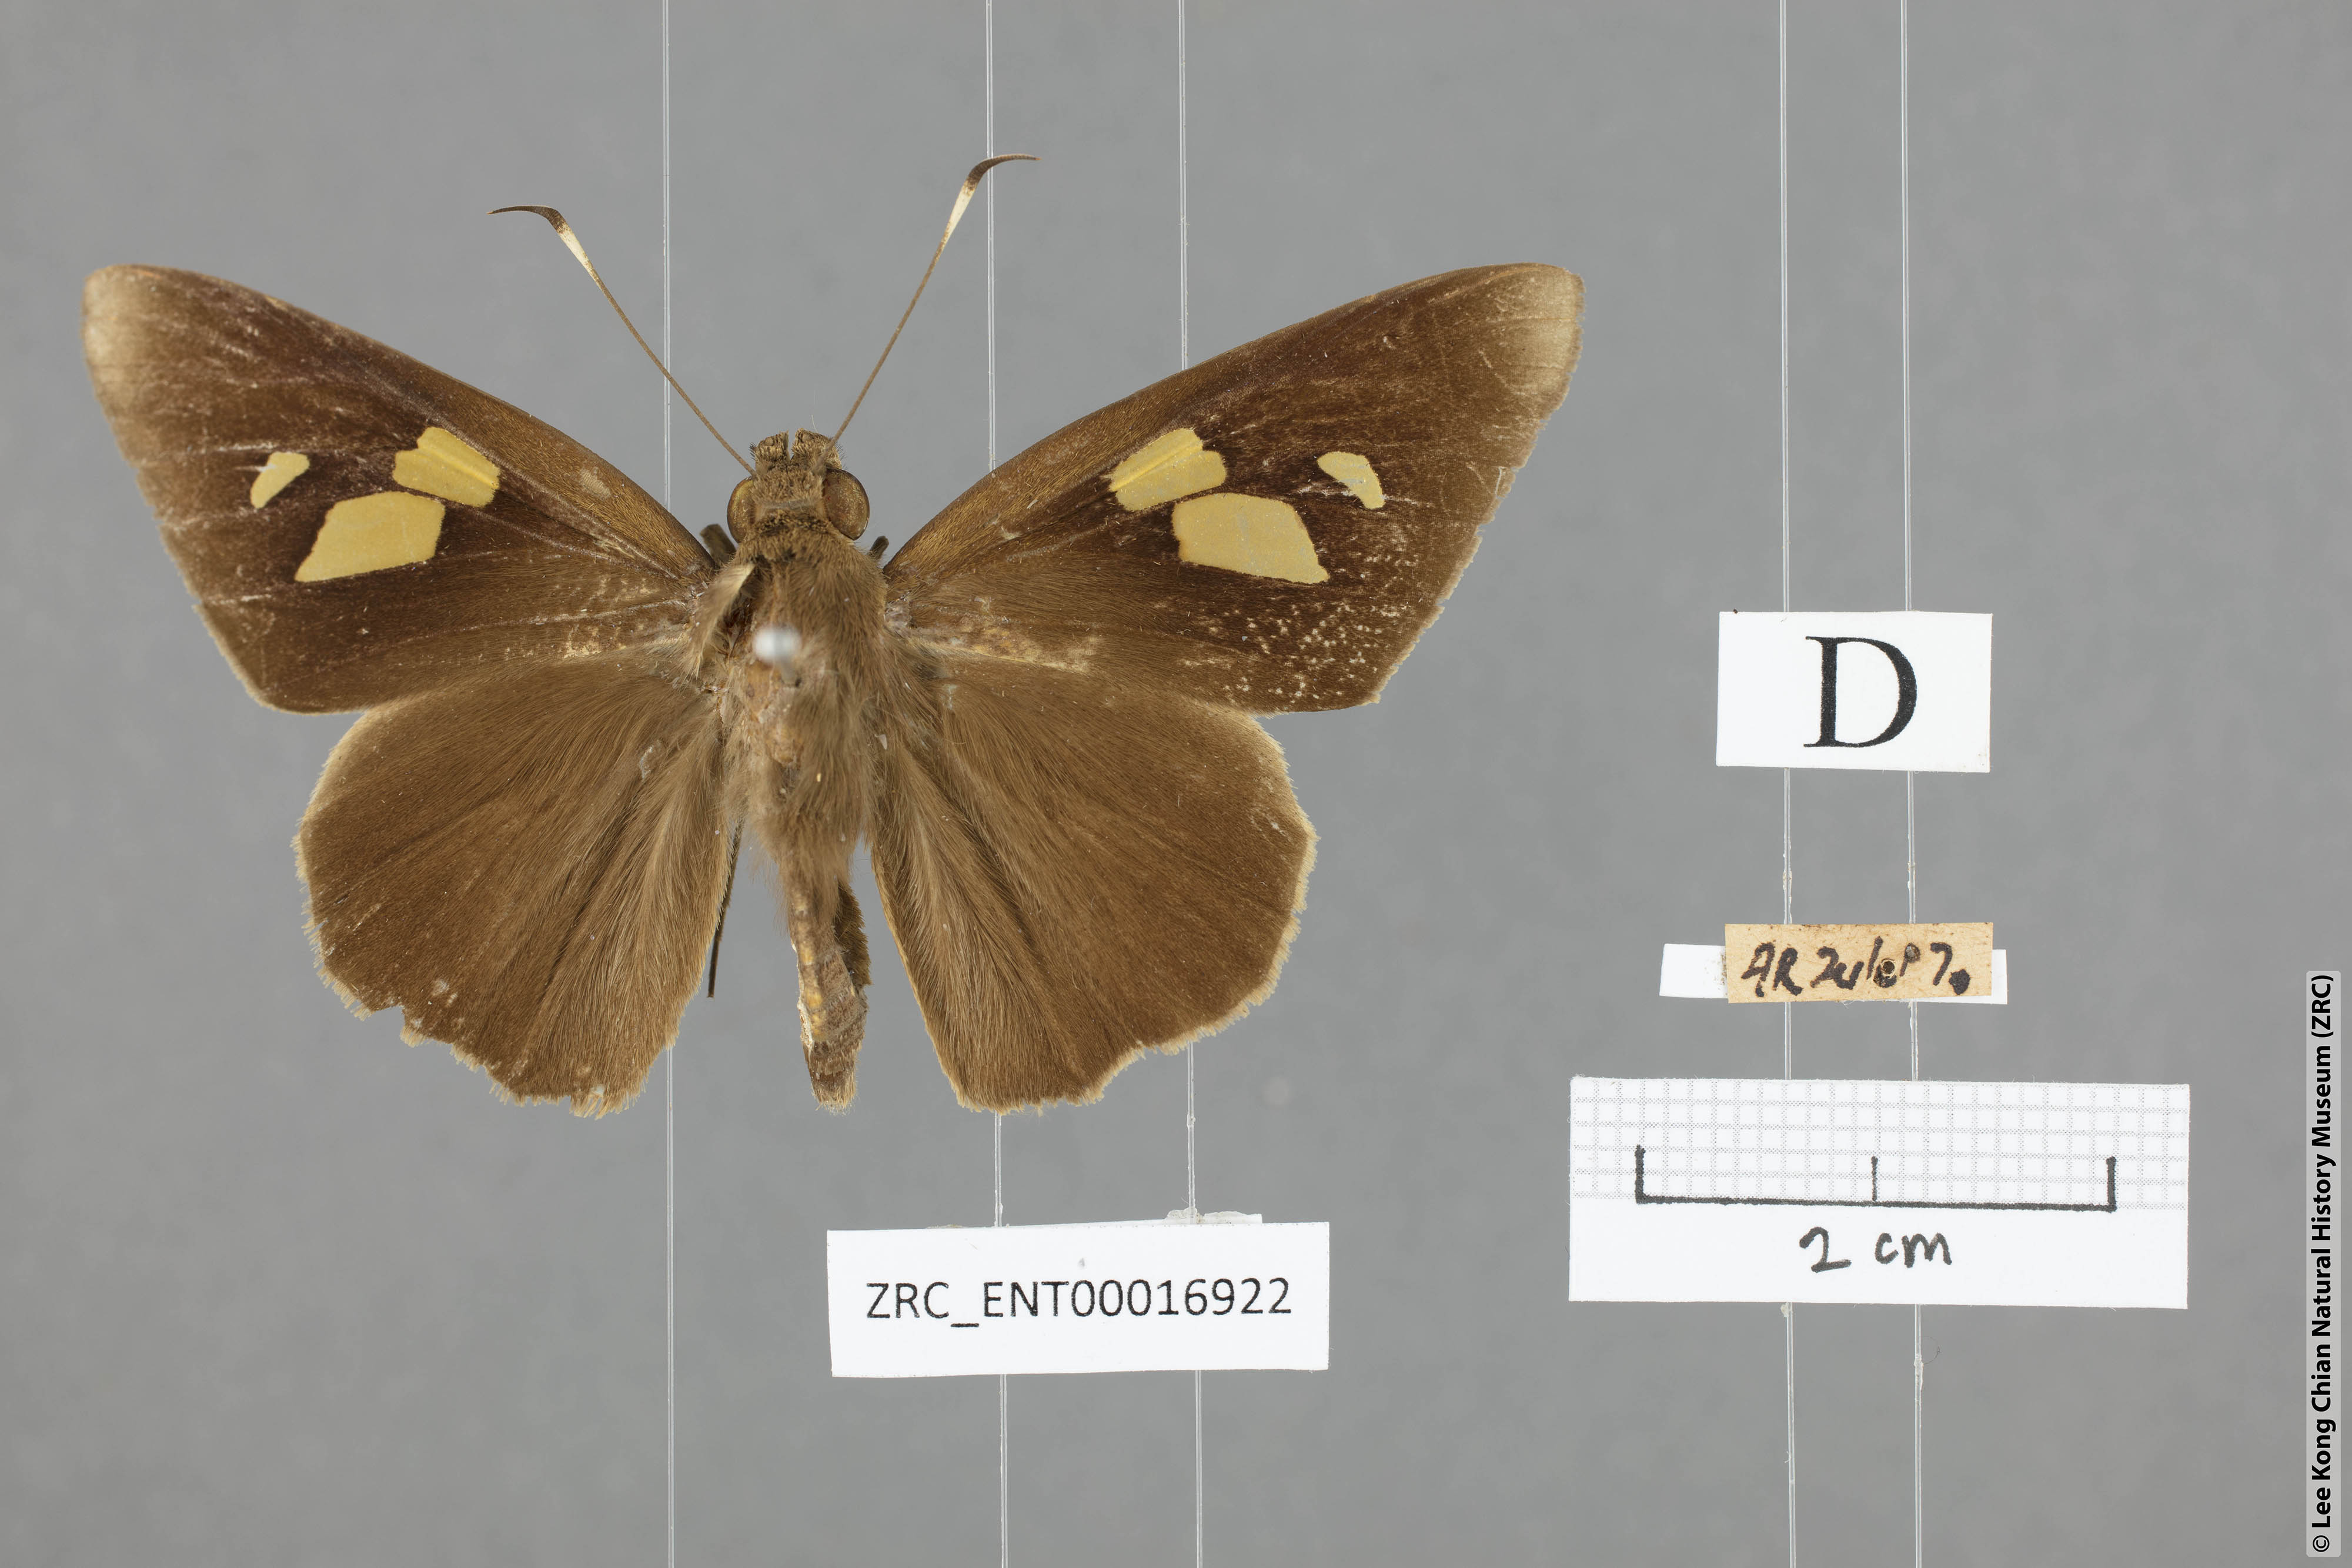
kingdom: Animalia
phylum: Arthropoda
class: Insecta
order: Lepidoptera
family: Hesperiidae
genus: Erionota
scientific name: Erionota thrax
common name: Banana skipper
